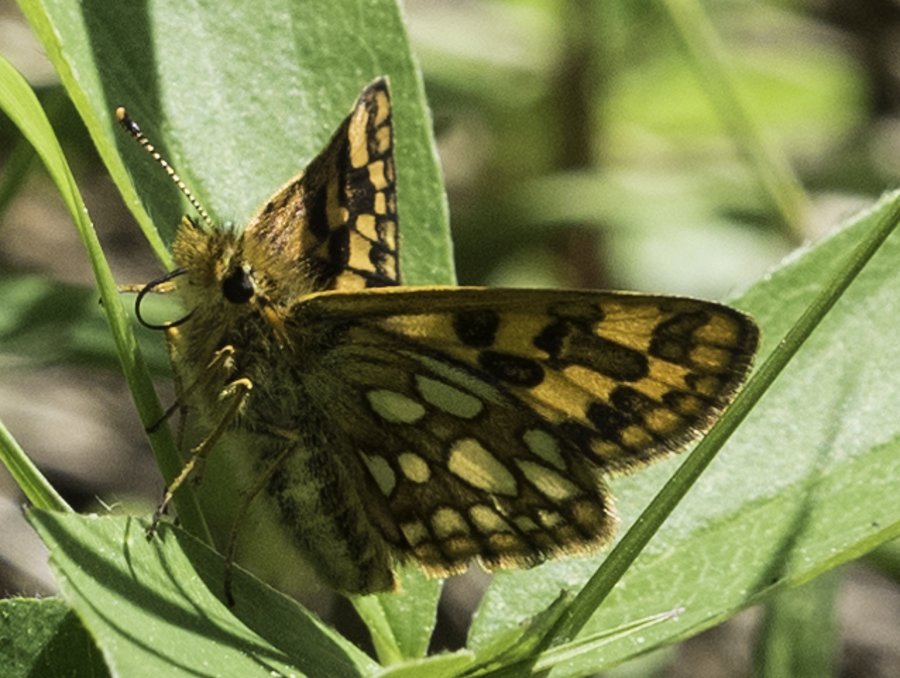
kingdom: Animalia
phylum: Arthropoda
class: Insecta
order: Lepidoptera
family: Hesperiidae
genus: Carterocephalus
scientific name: Carterocephalus palaemon
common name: Chequered Skipper
